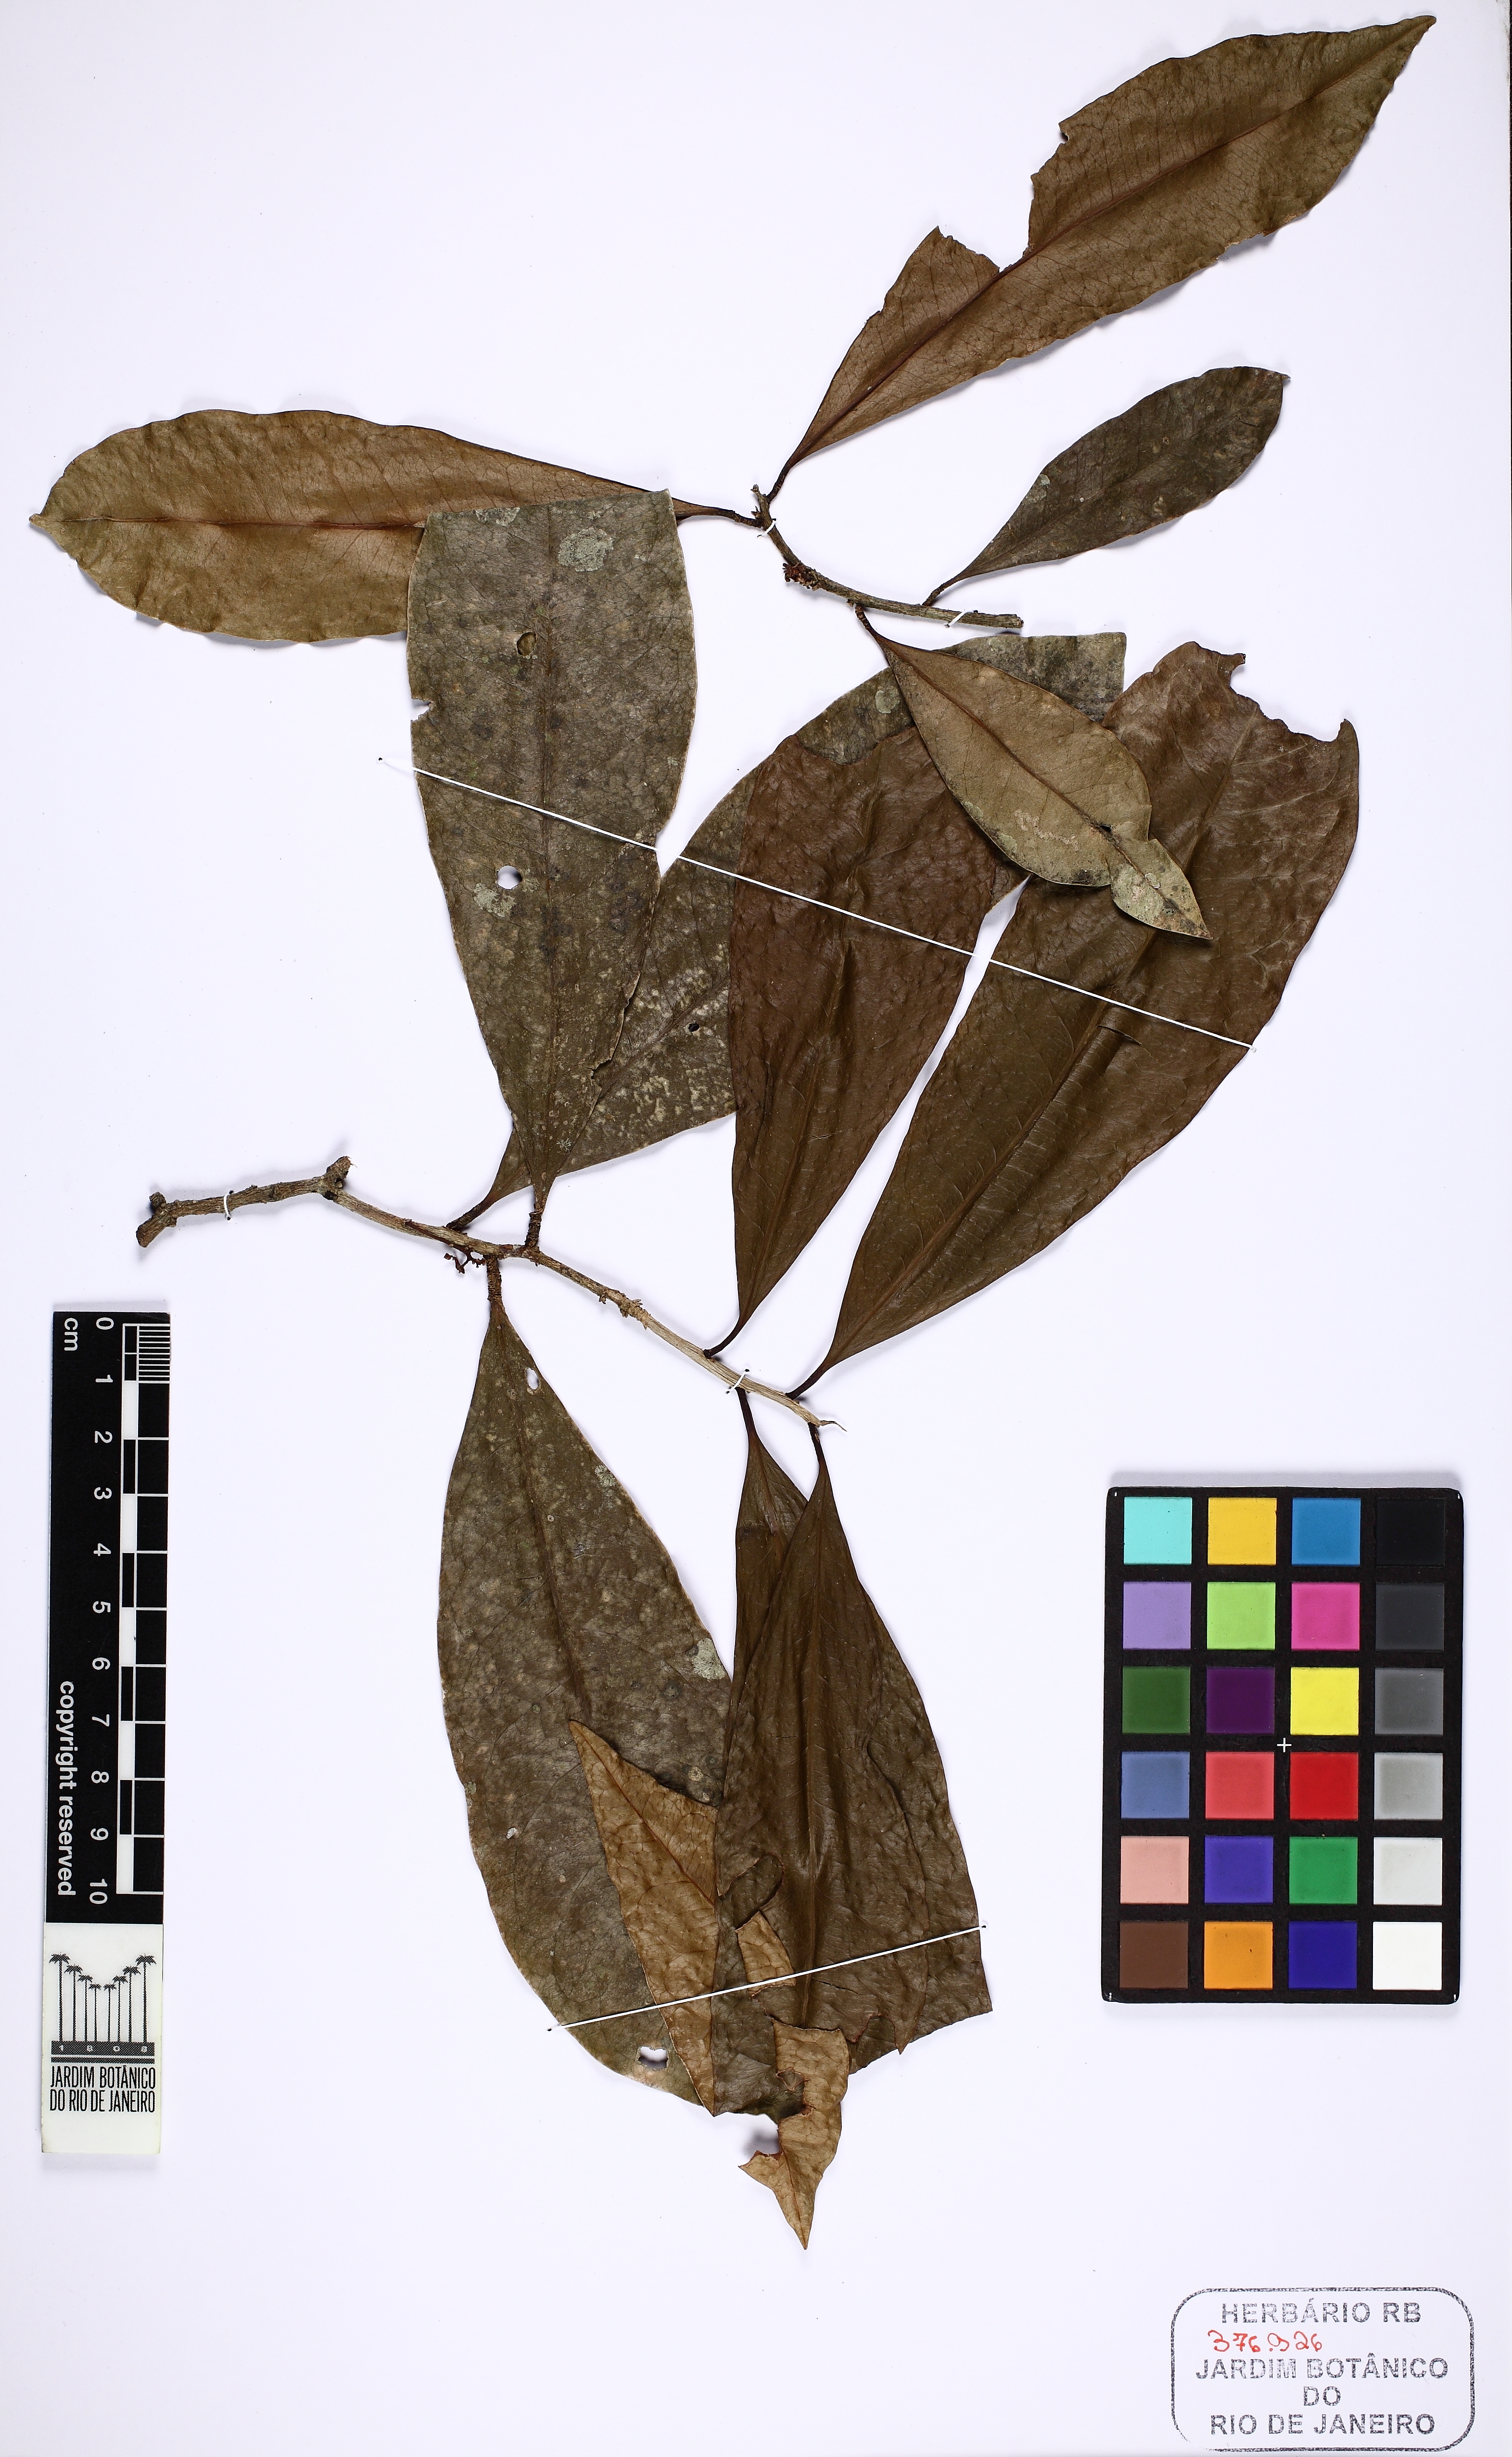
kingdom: Plantae
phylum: Tracheophyta
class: Magnoliopsida
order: Malvales
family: Thymelaeaceae
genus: Daphnopsis
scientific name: Daphnopsis martii
